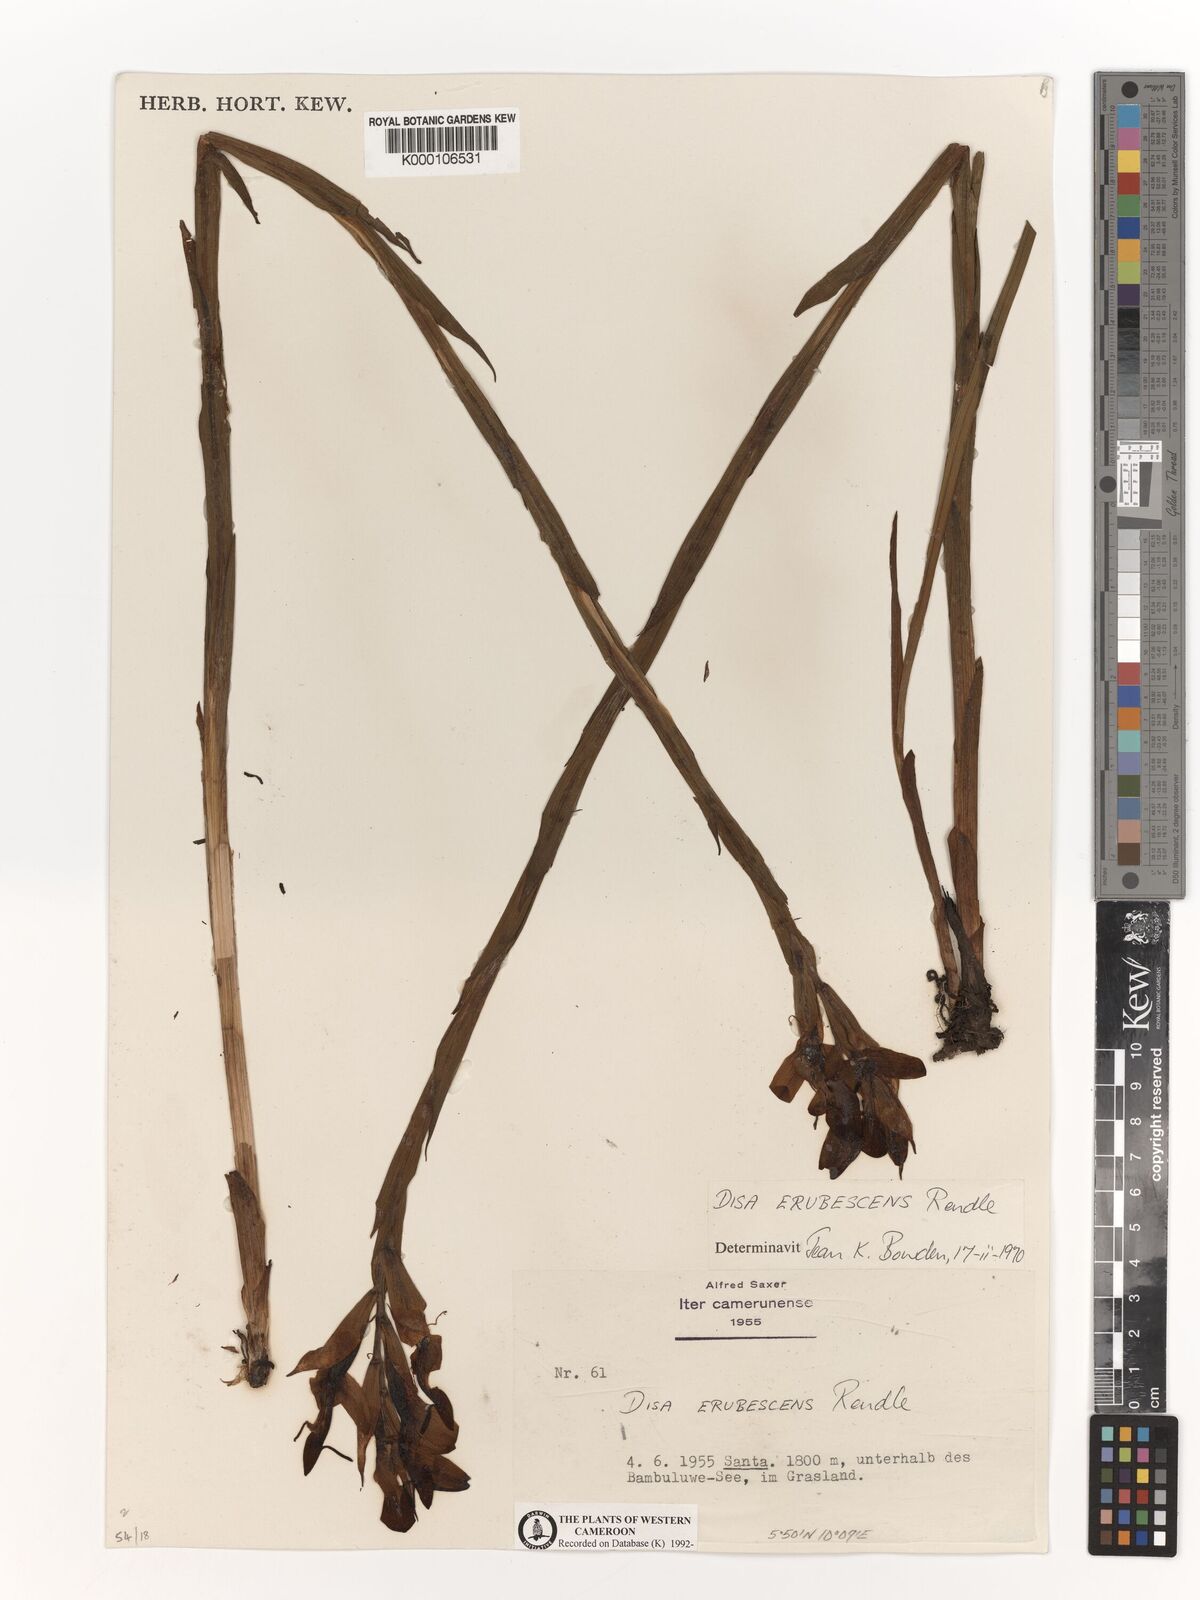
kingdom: Plantae
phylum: Tracheophyta
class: Liliopsida
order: Asparagales
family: Orchidaceae
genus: Disa
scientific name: Disa erubescens
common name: The rose disa
